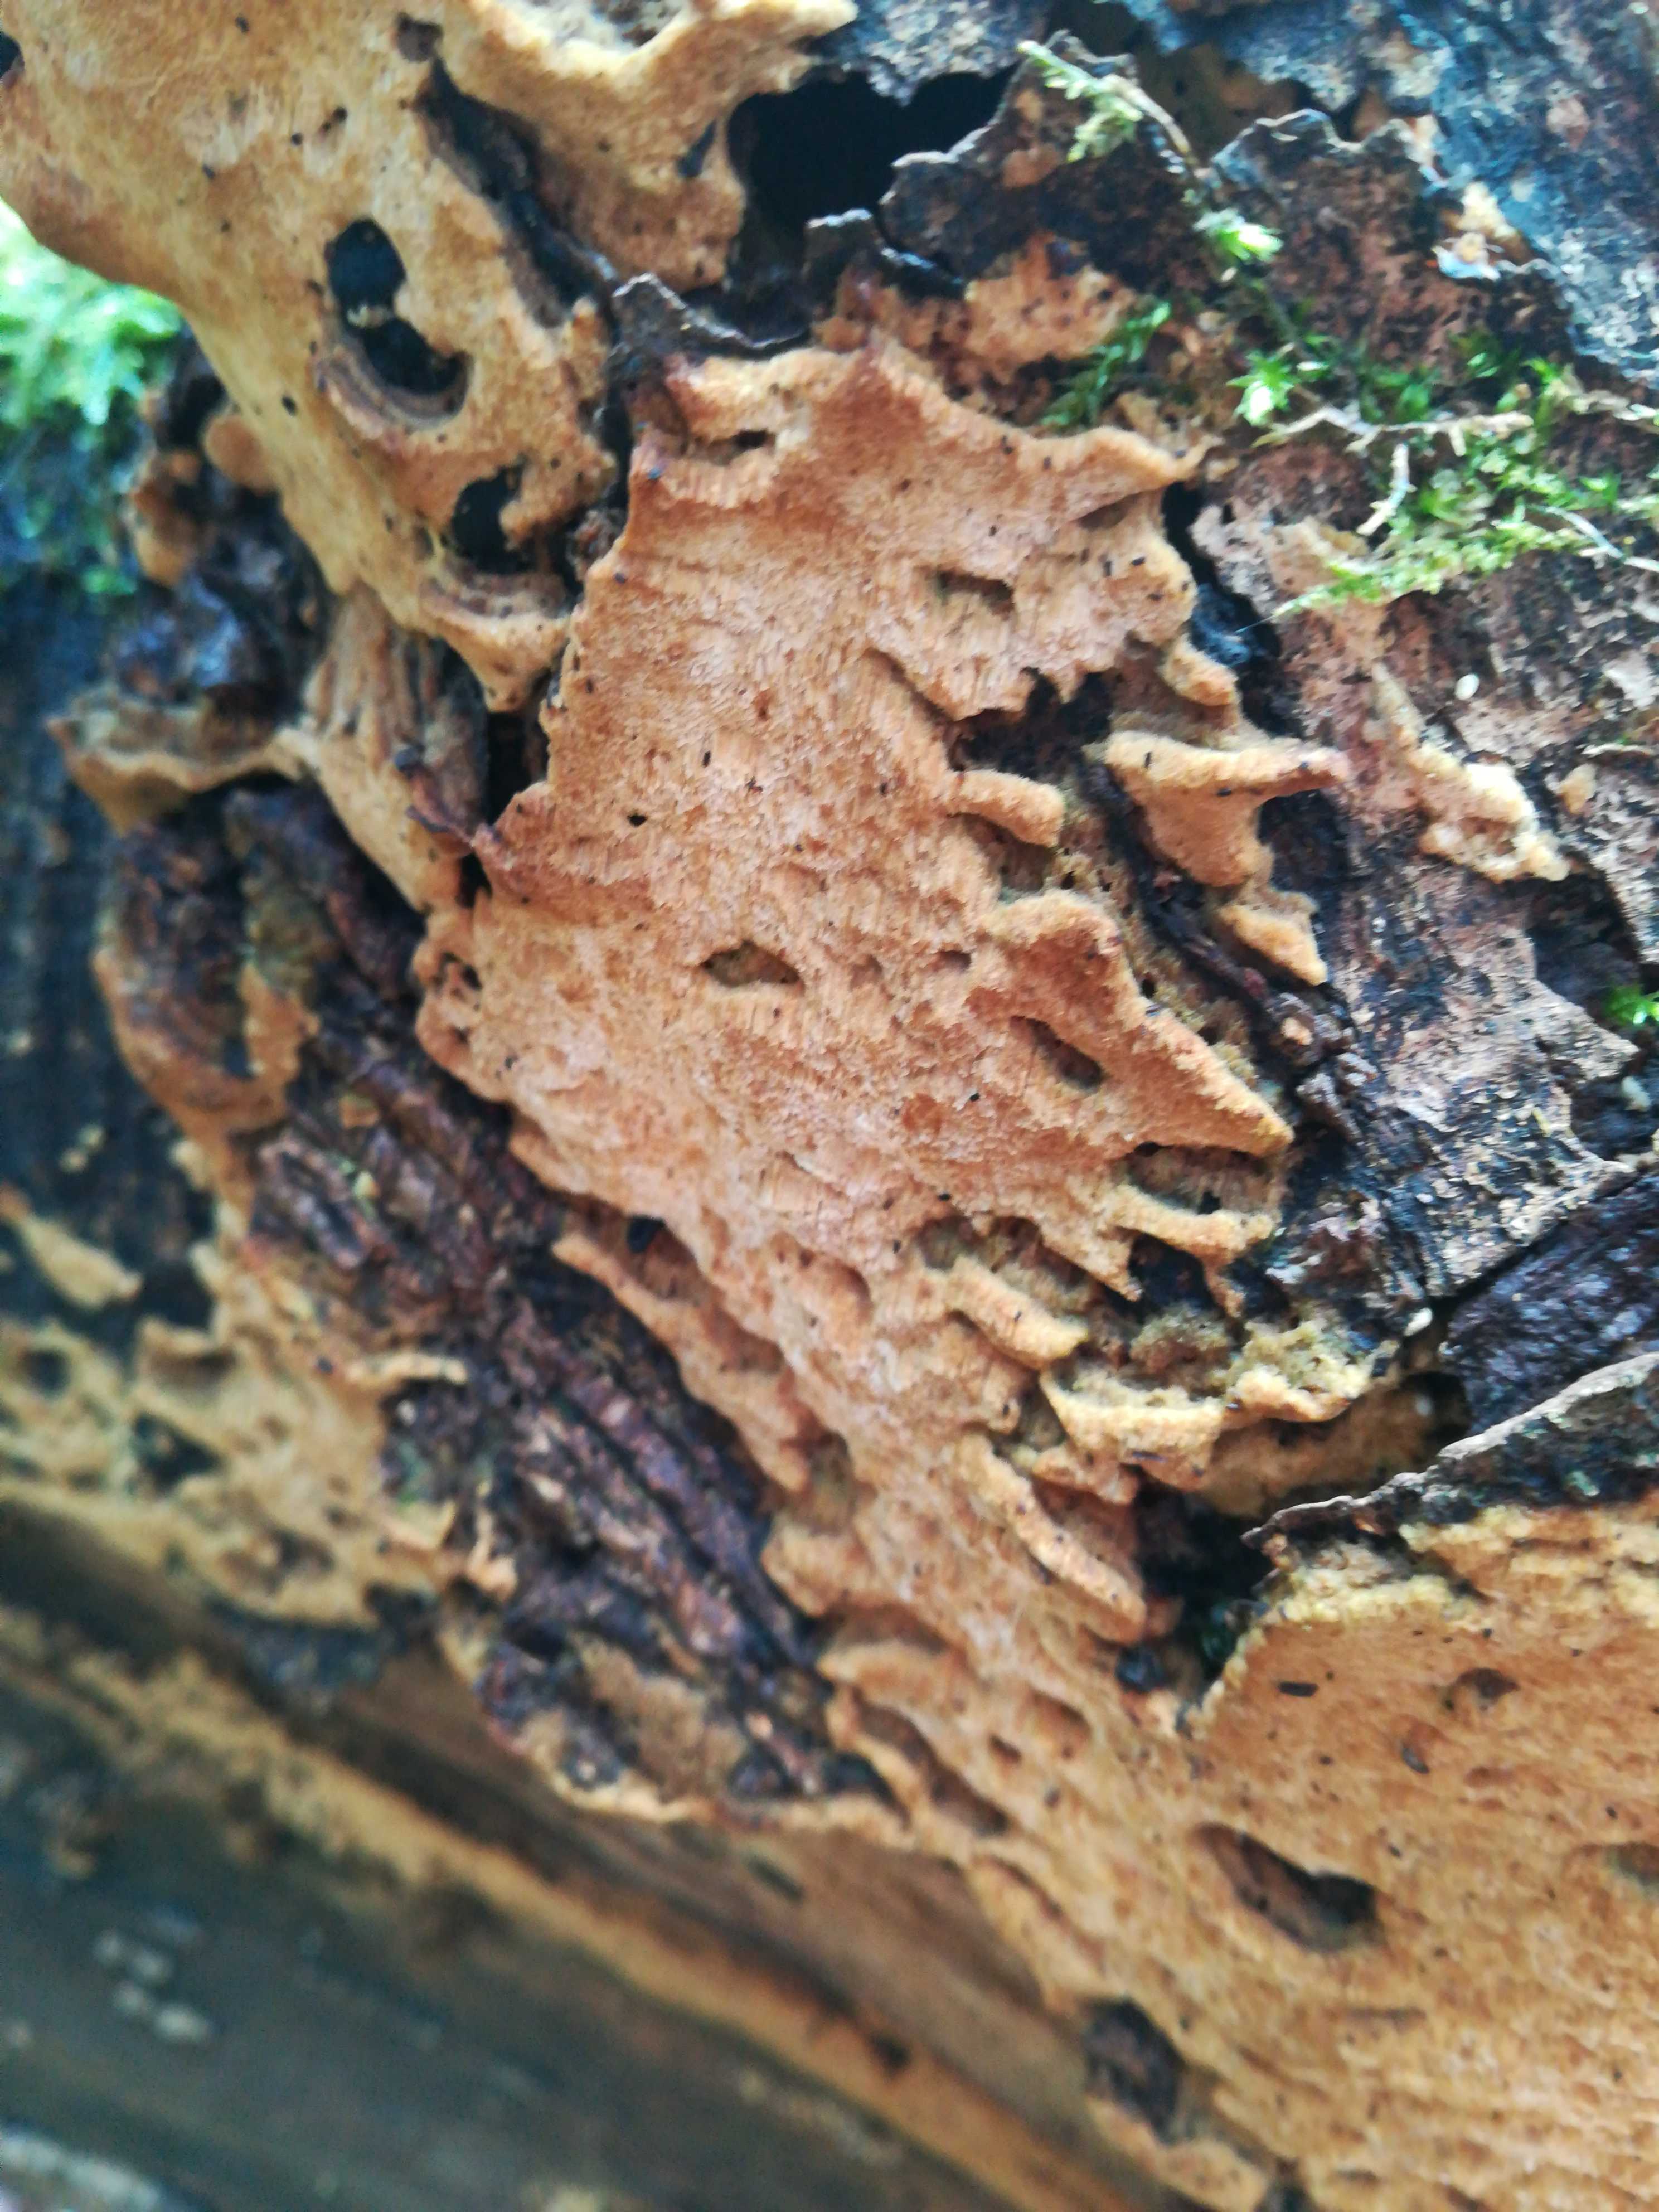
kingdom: Fungi
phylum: Basidiomycota
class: Agaricomycetes
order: Polyporales
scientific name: Polyporales
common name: poresvampordenen
